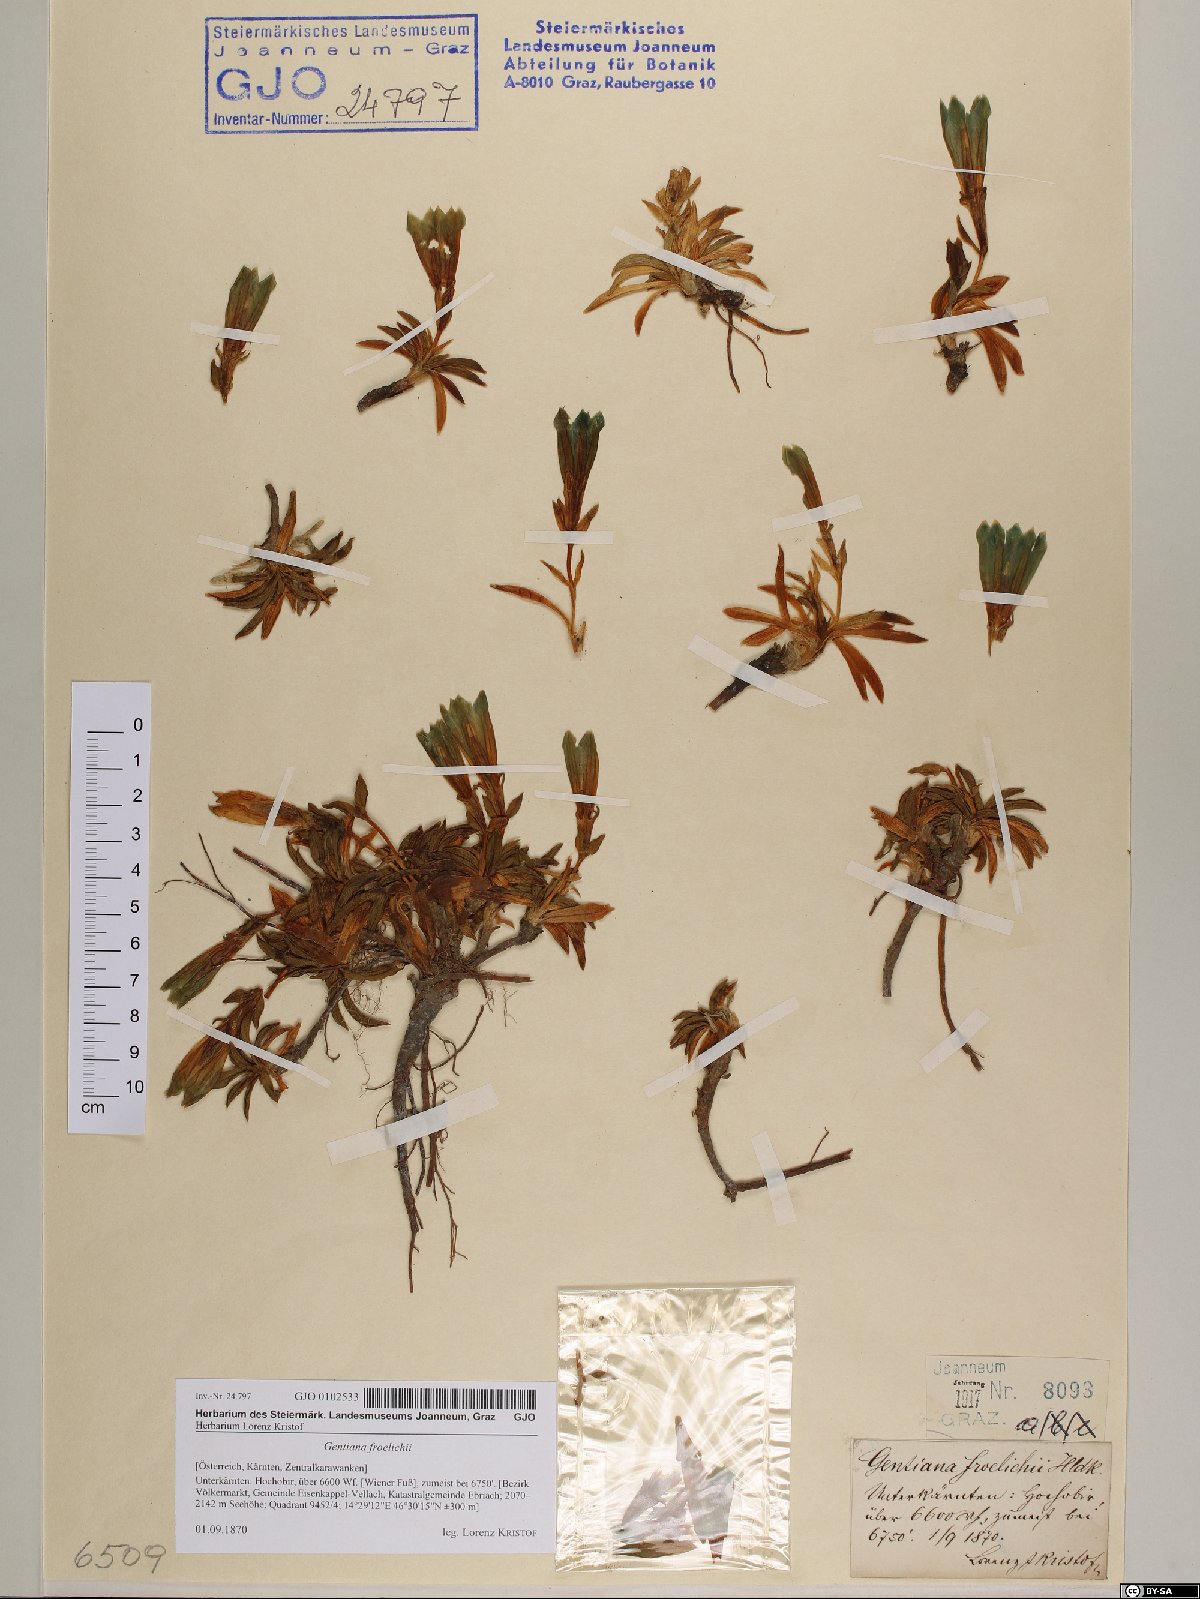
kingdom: Plantae
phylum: Tracheophyta
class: Magnoliopsida
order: Gentianales
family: Gentianaceae
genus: Gentiana
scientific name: Gentiana froelichii
